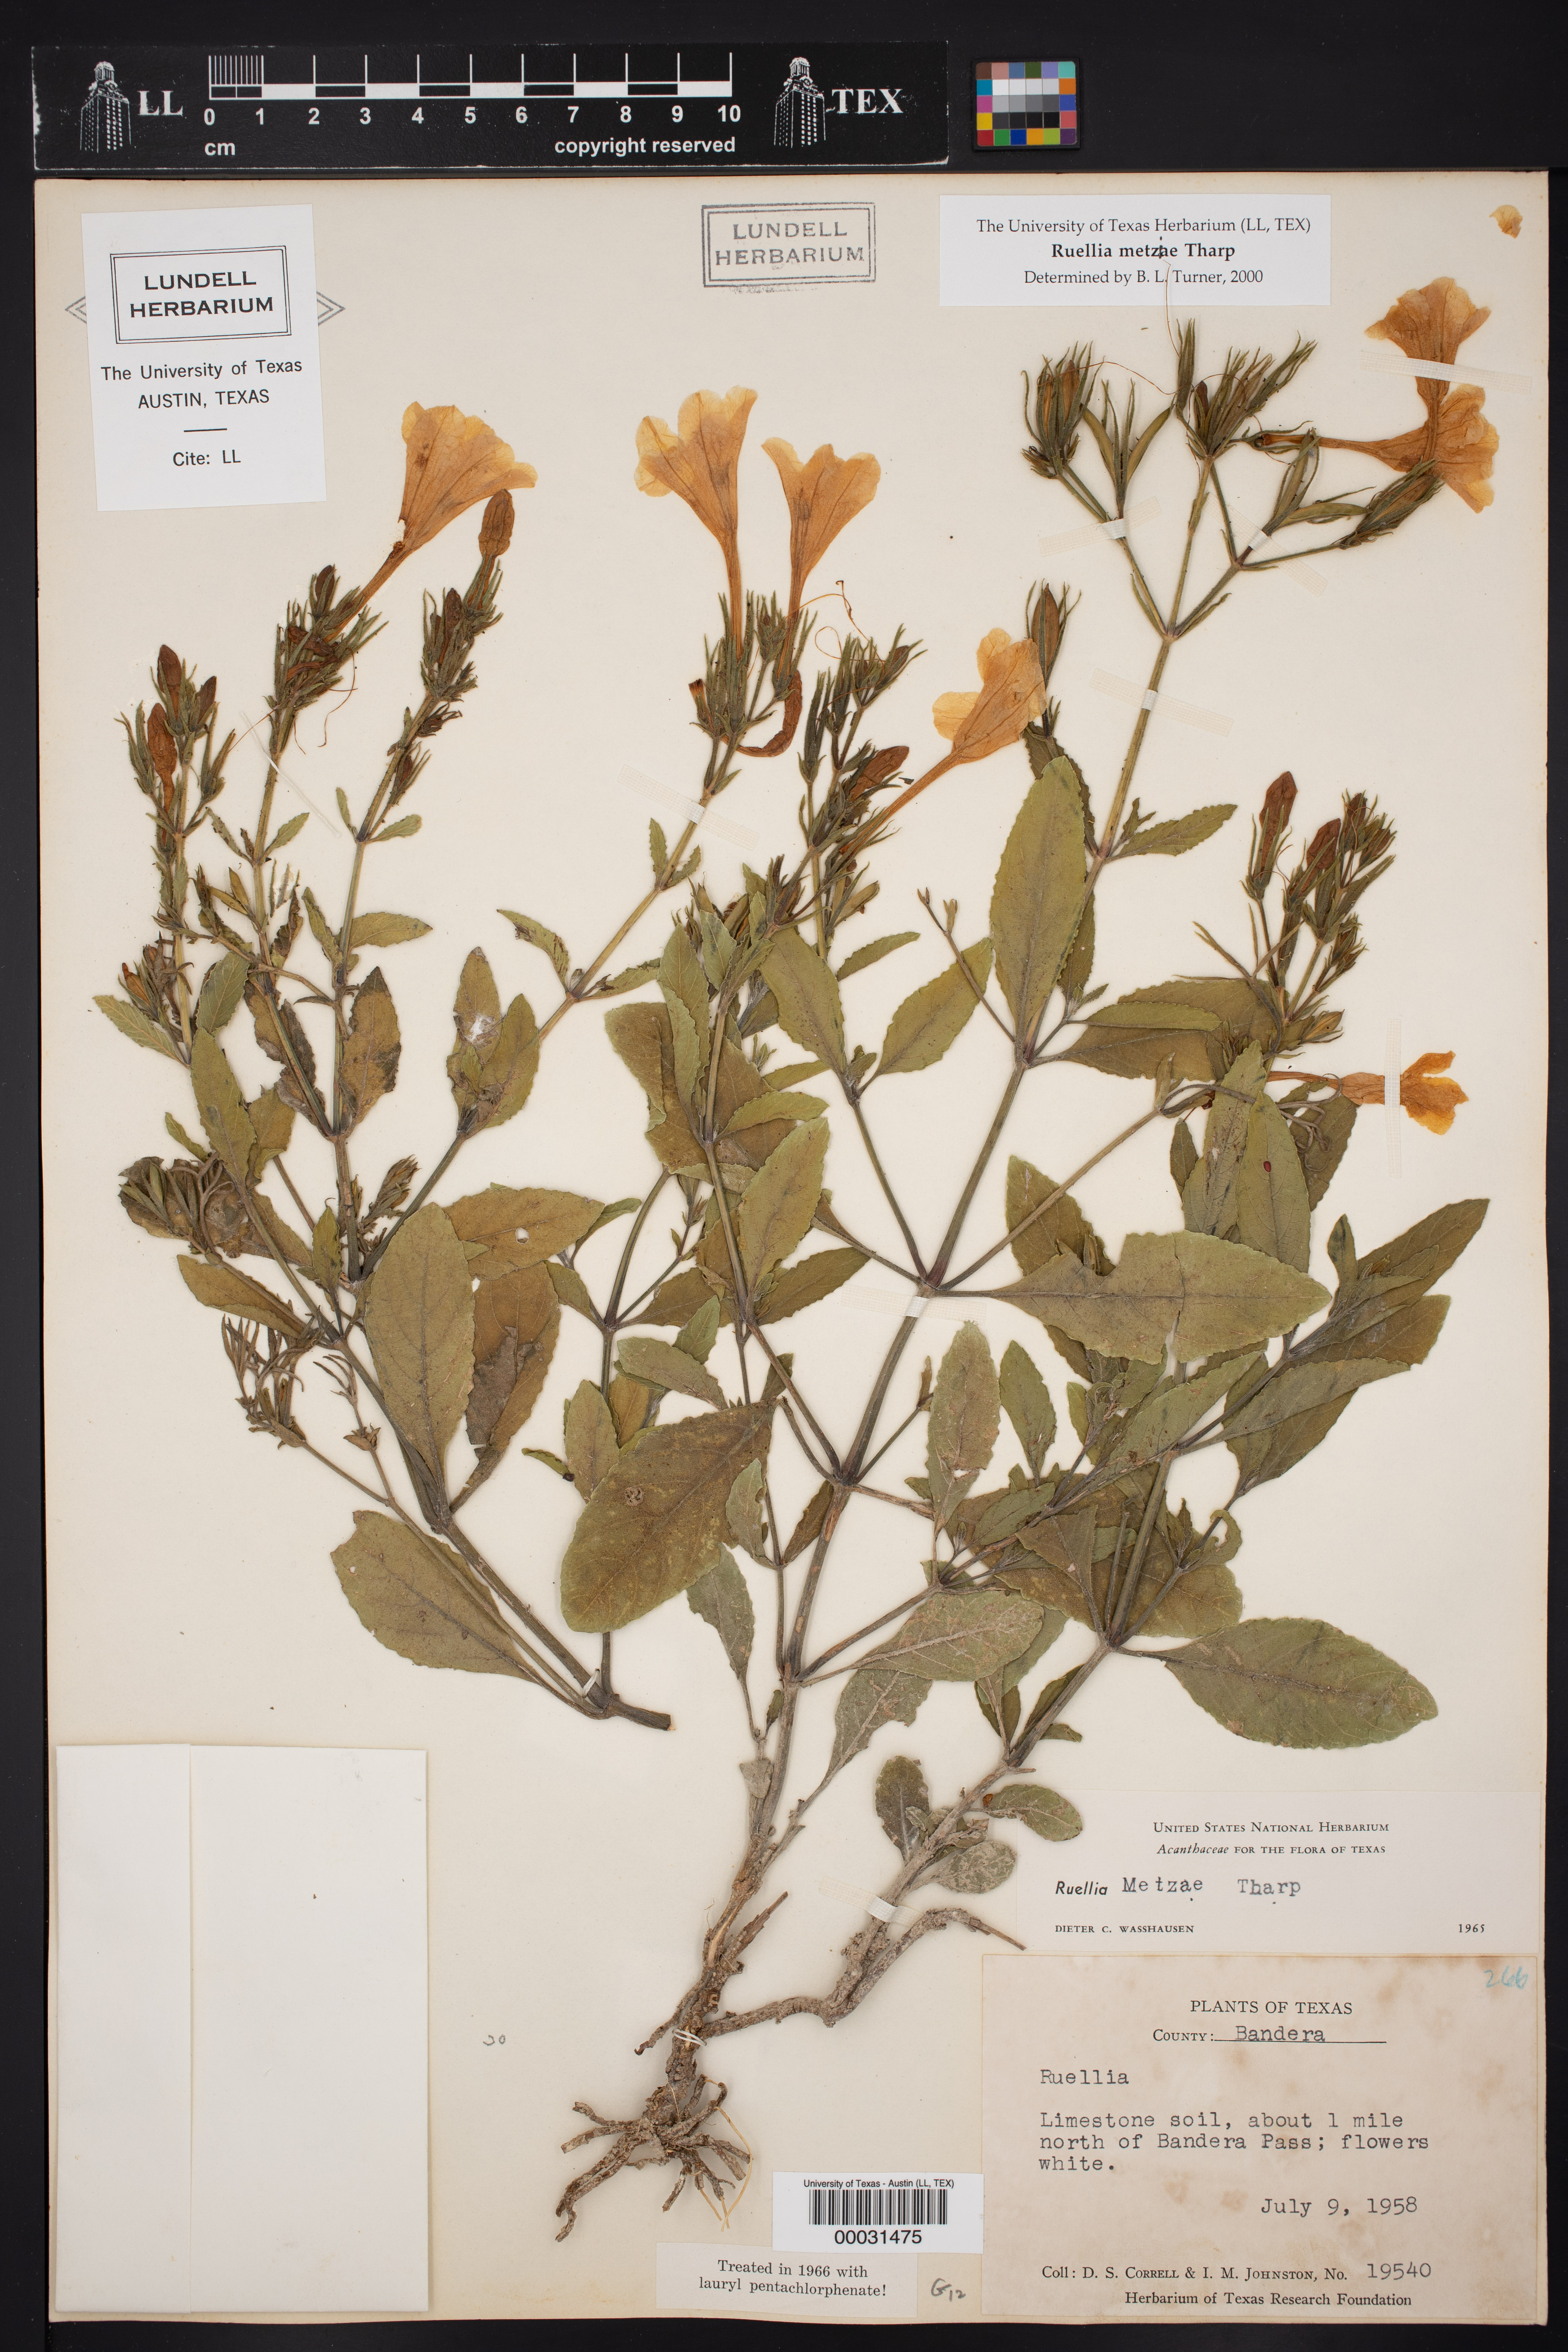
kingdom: Plantae
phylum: Tracheophyta
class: Magnoliopsida
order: Lamiales
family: Acanthaceae
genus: Ruellia
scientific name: Ruellia metziae
